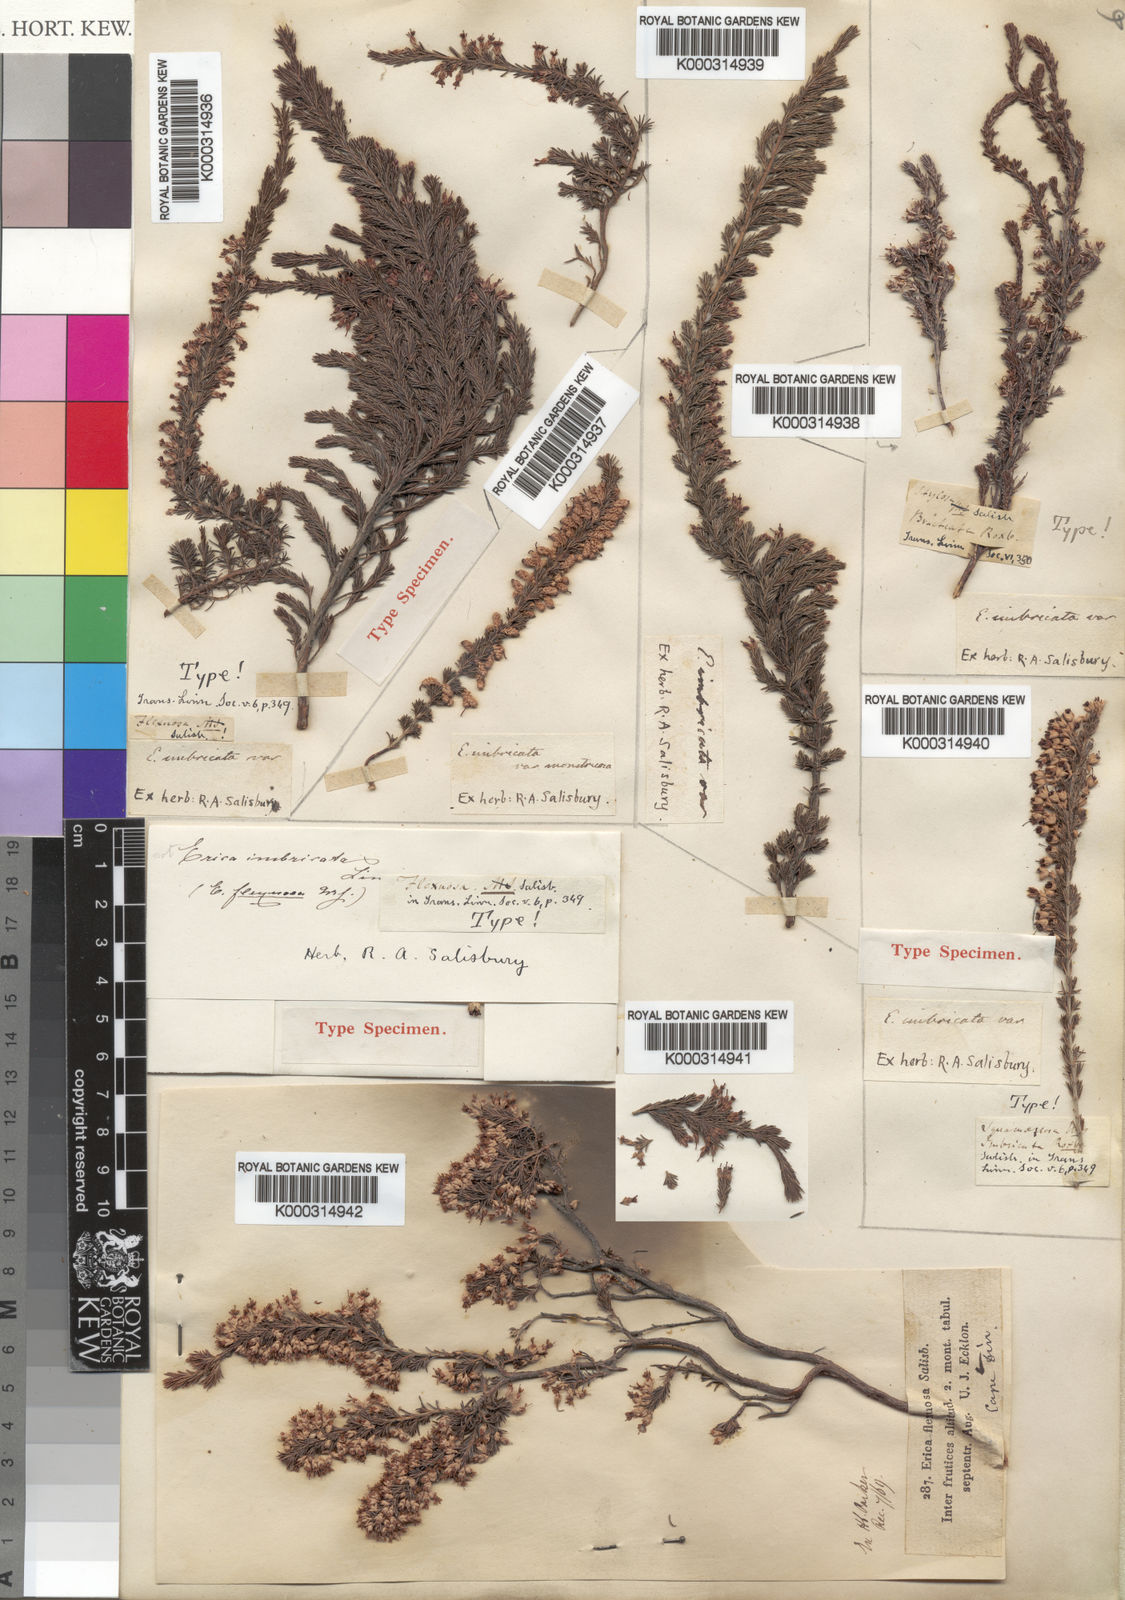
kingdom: Plantae
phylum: Tracheophyta
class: Magnoliopsida
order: Ericales
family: Ericaceae
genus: Erica
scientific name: Erica imbricata
